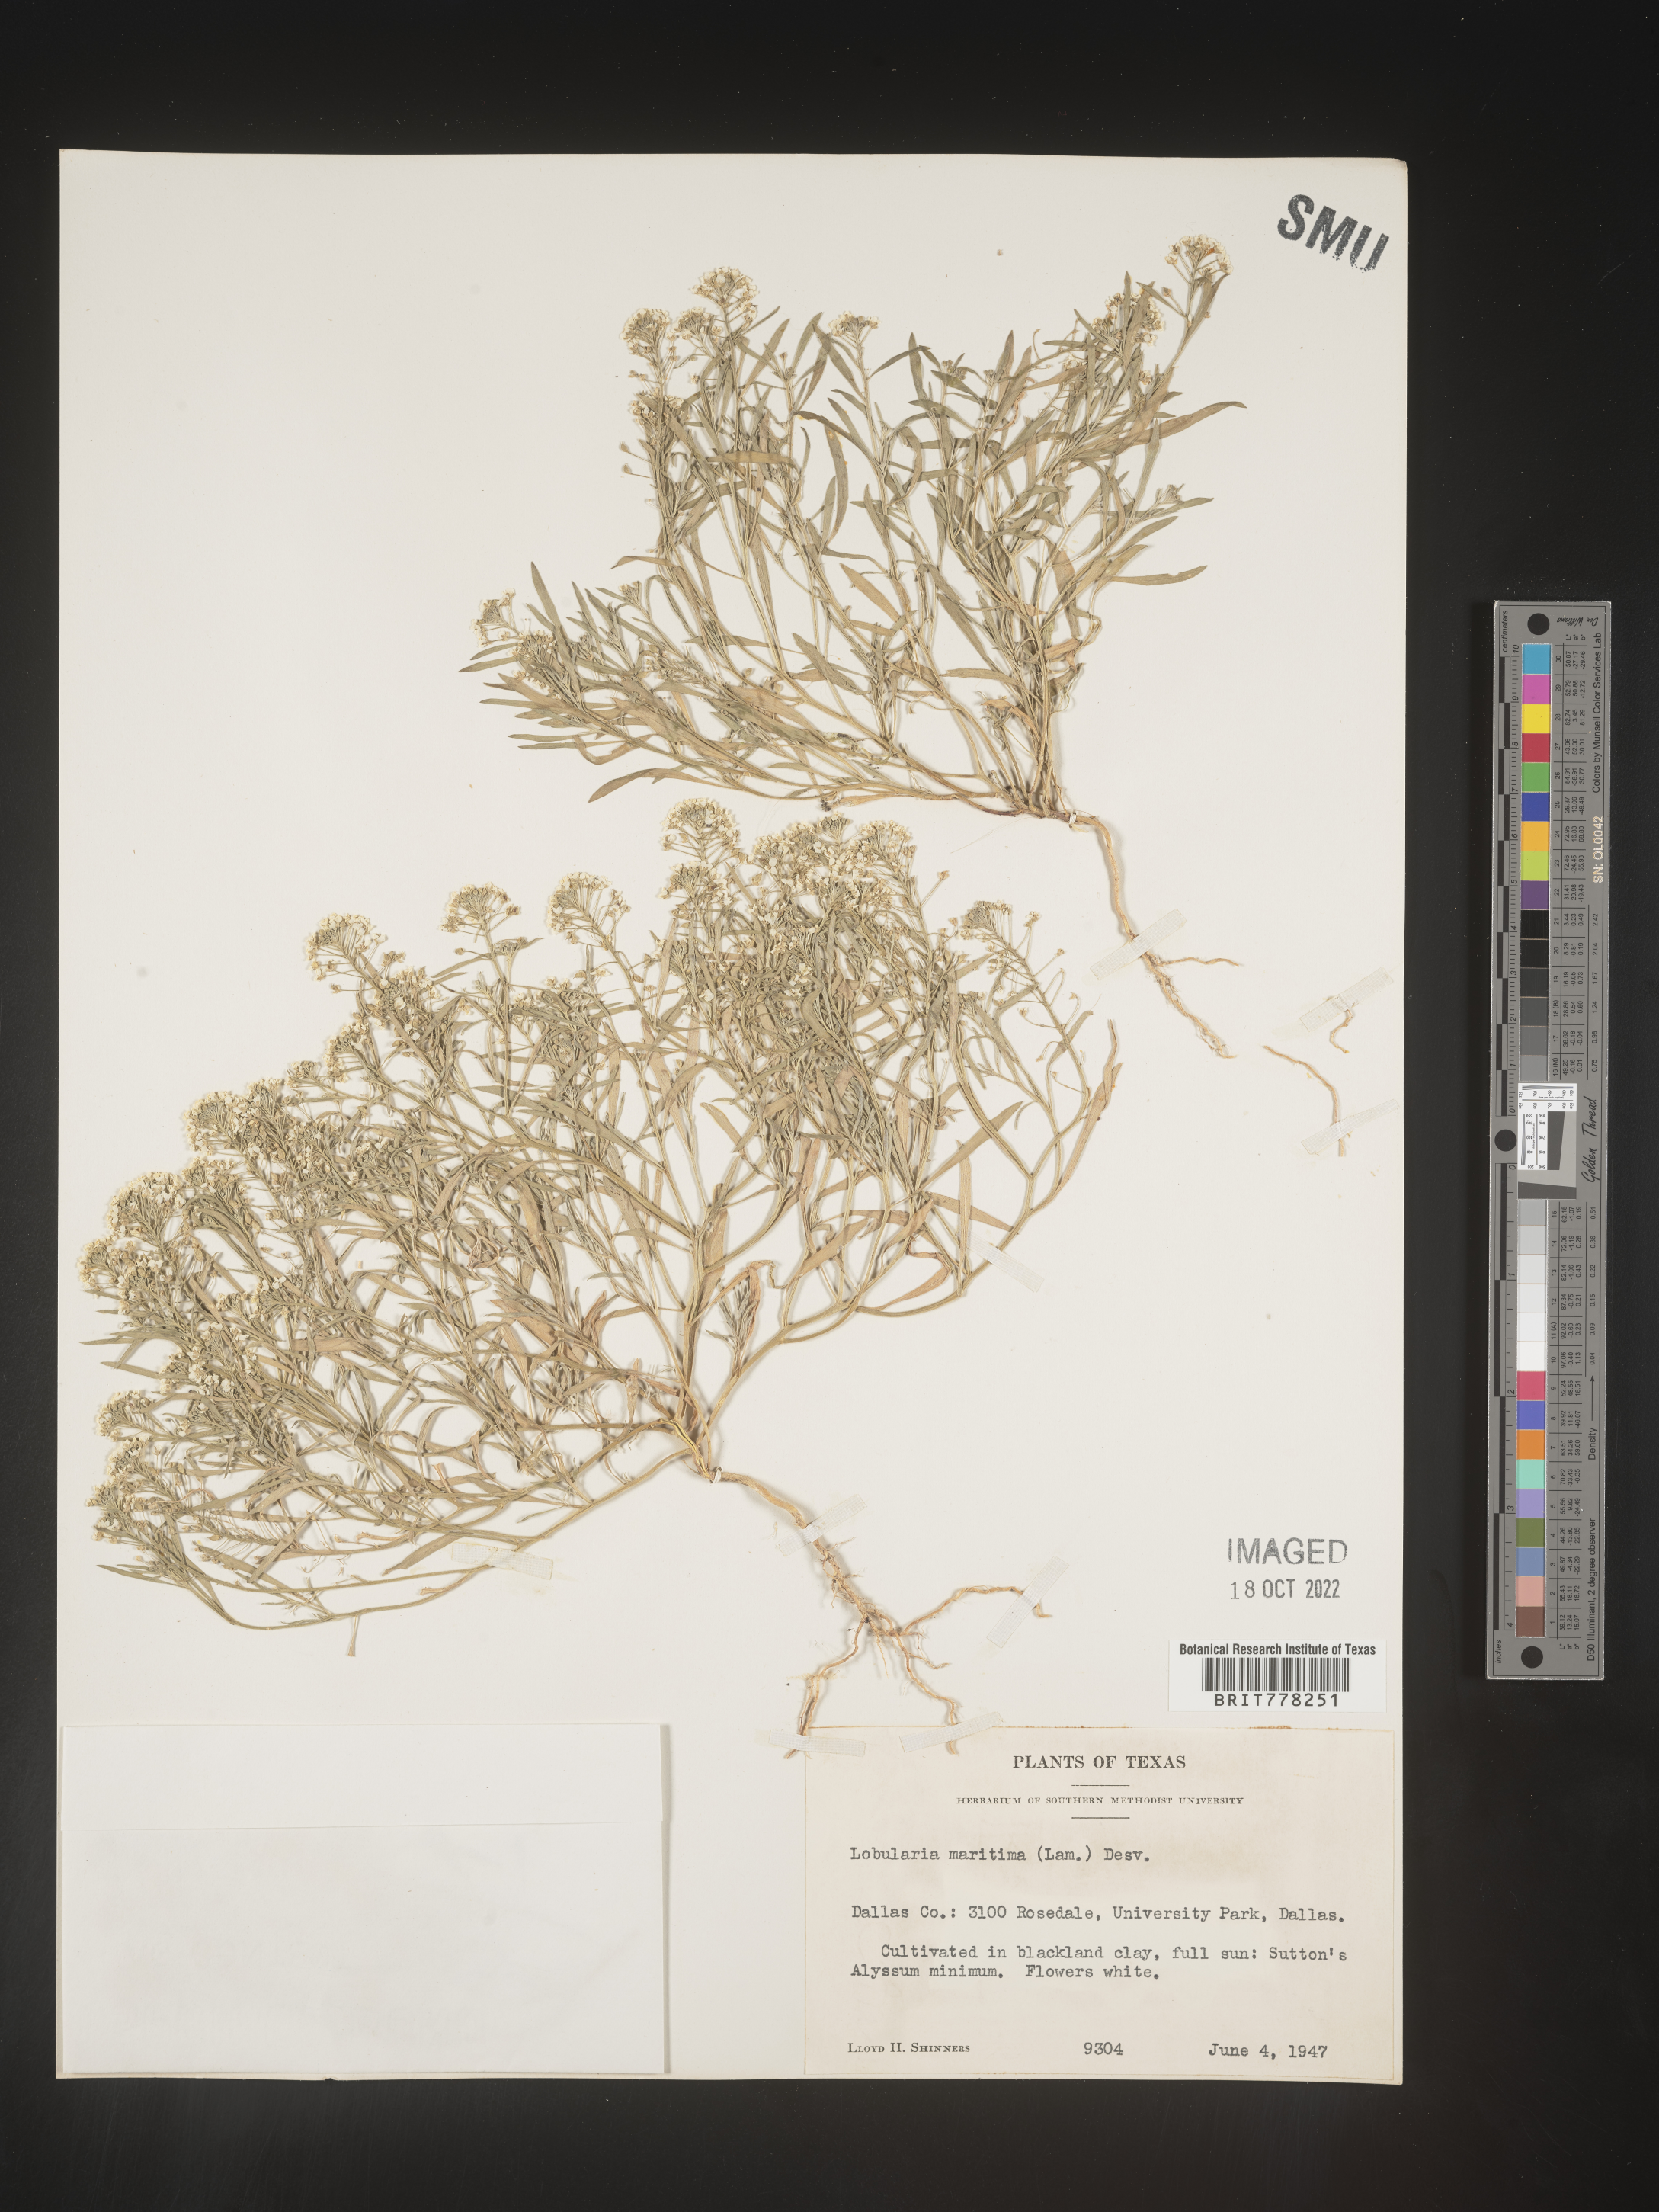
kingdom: Plantae
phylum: Tracheophyta
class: Magnoliopsida
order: Brassicales
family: Brassicaceae
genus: Lobularia
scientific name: Lobularia
